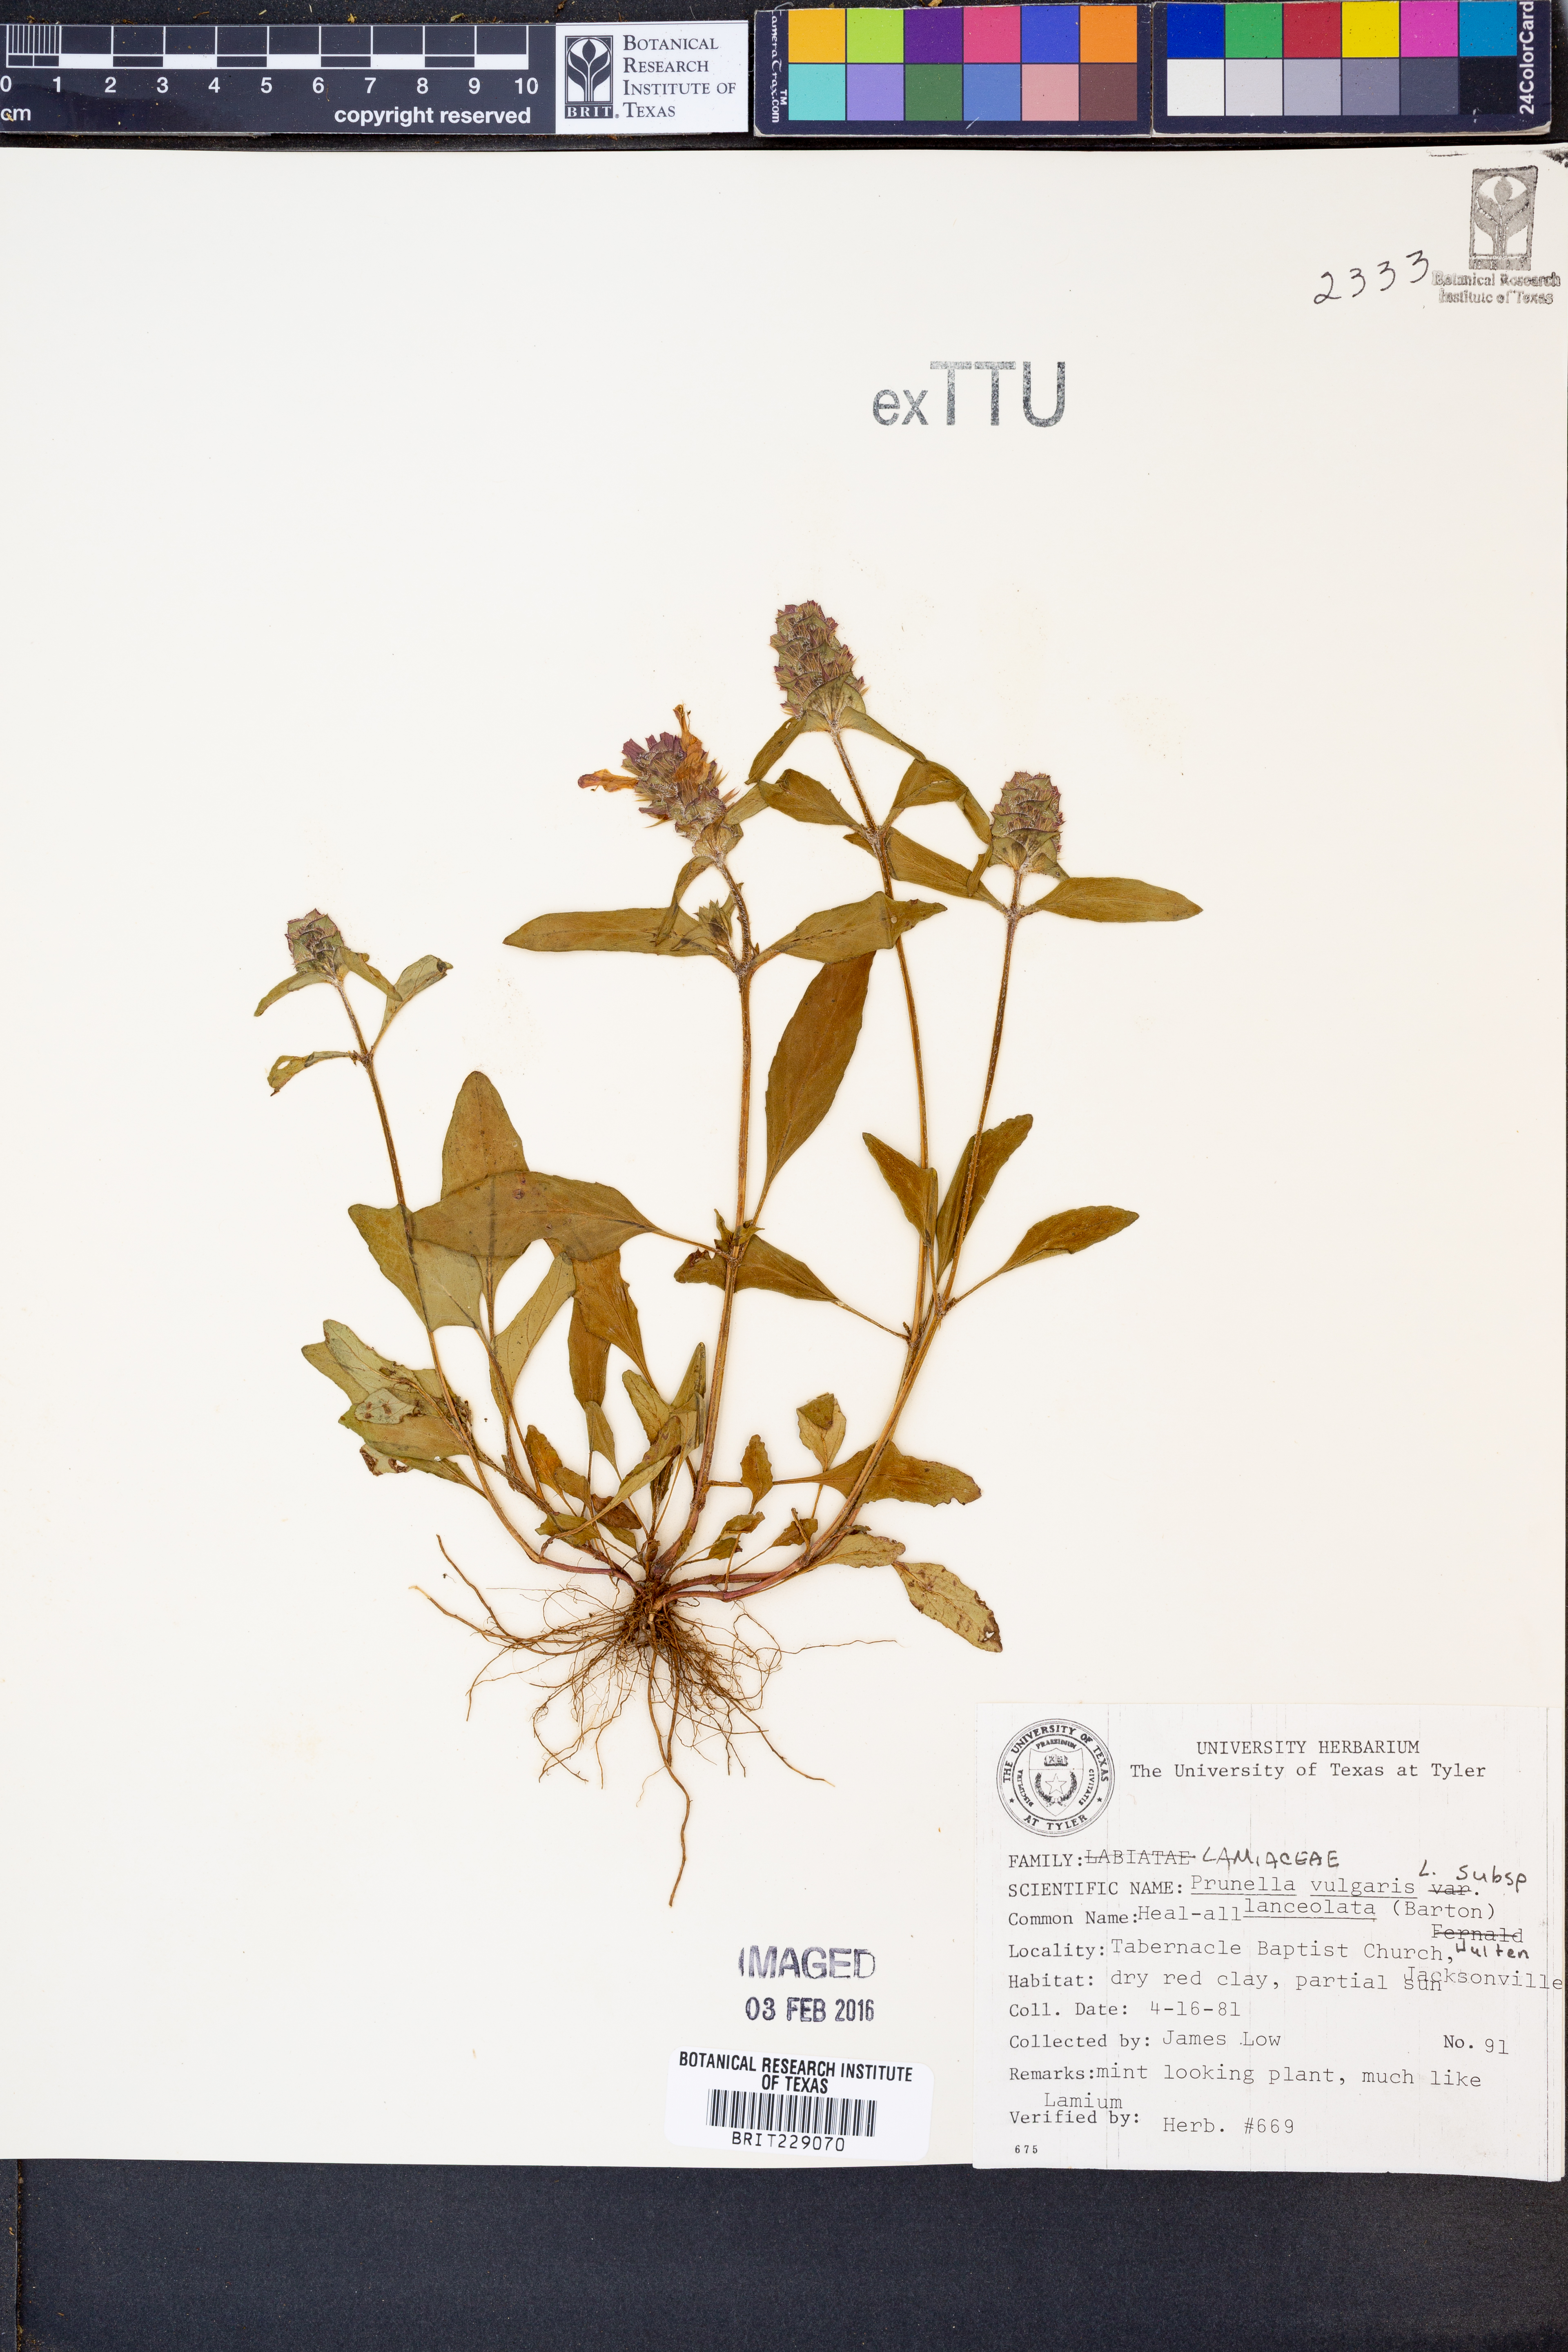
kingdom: Plantae
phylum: Tracheophyta
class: Magnoliopsida
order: Lamiales
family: Lamiaceae
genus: Prunella
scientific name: Prunella vulgaris
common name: Heal-all
